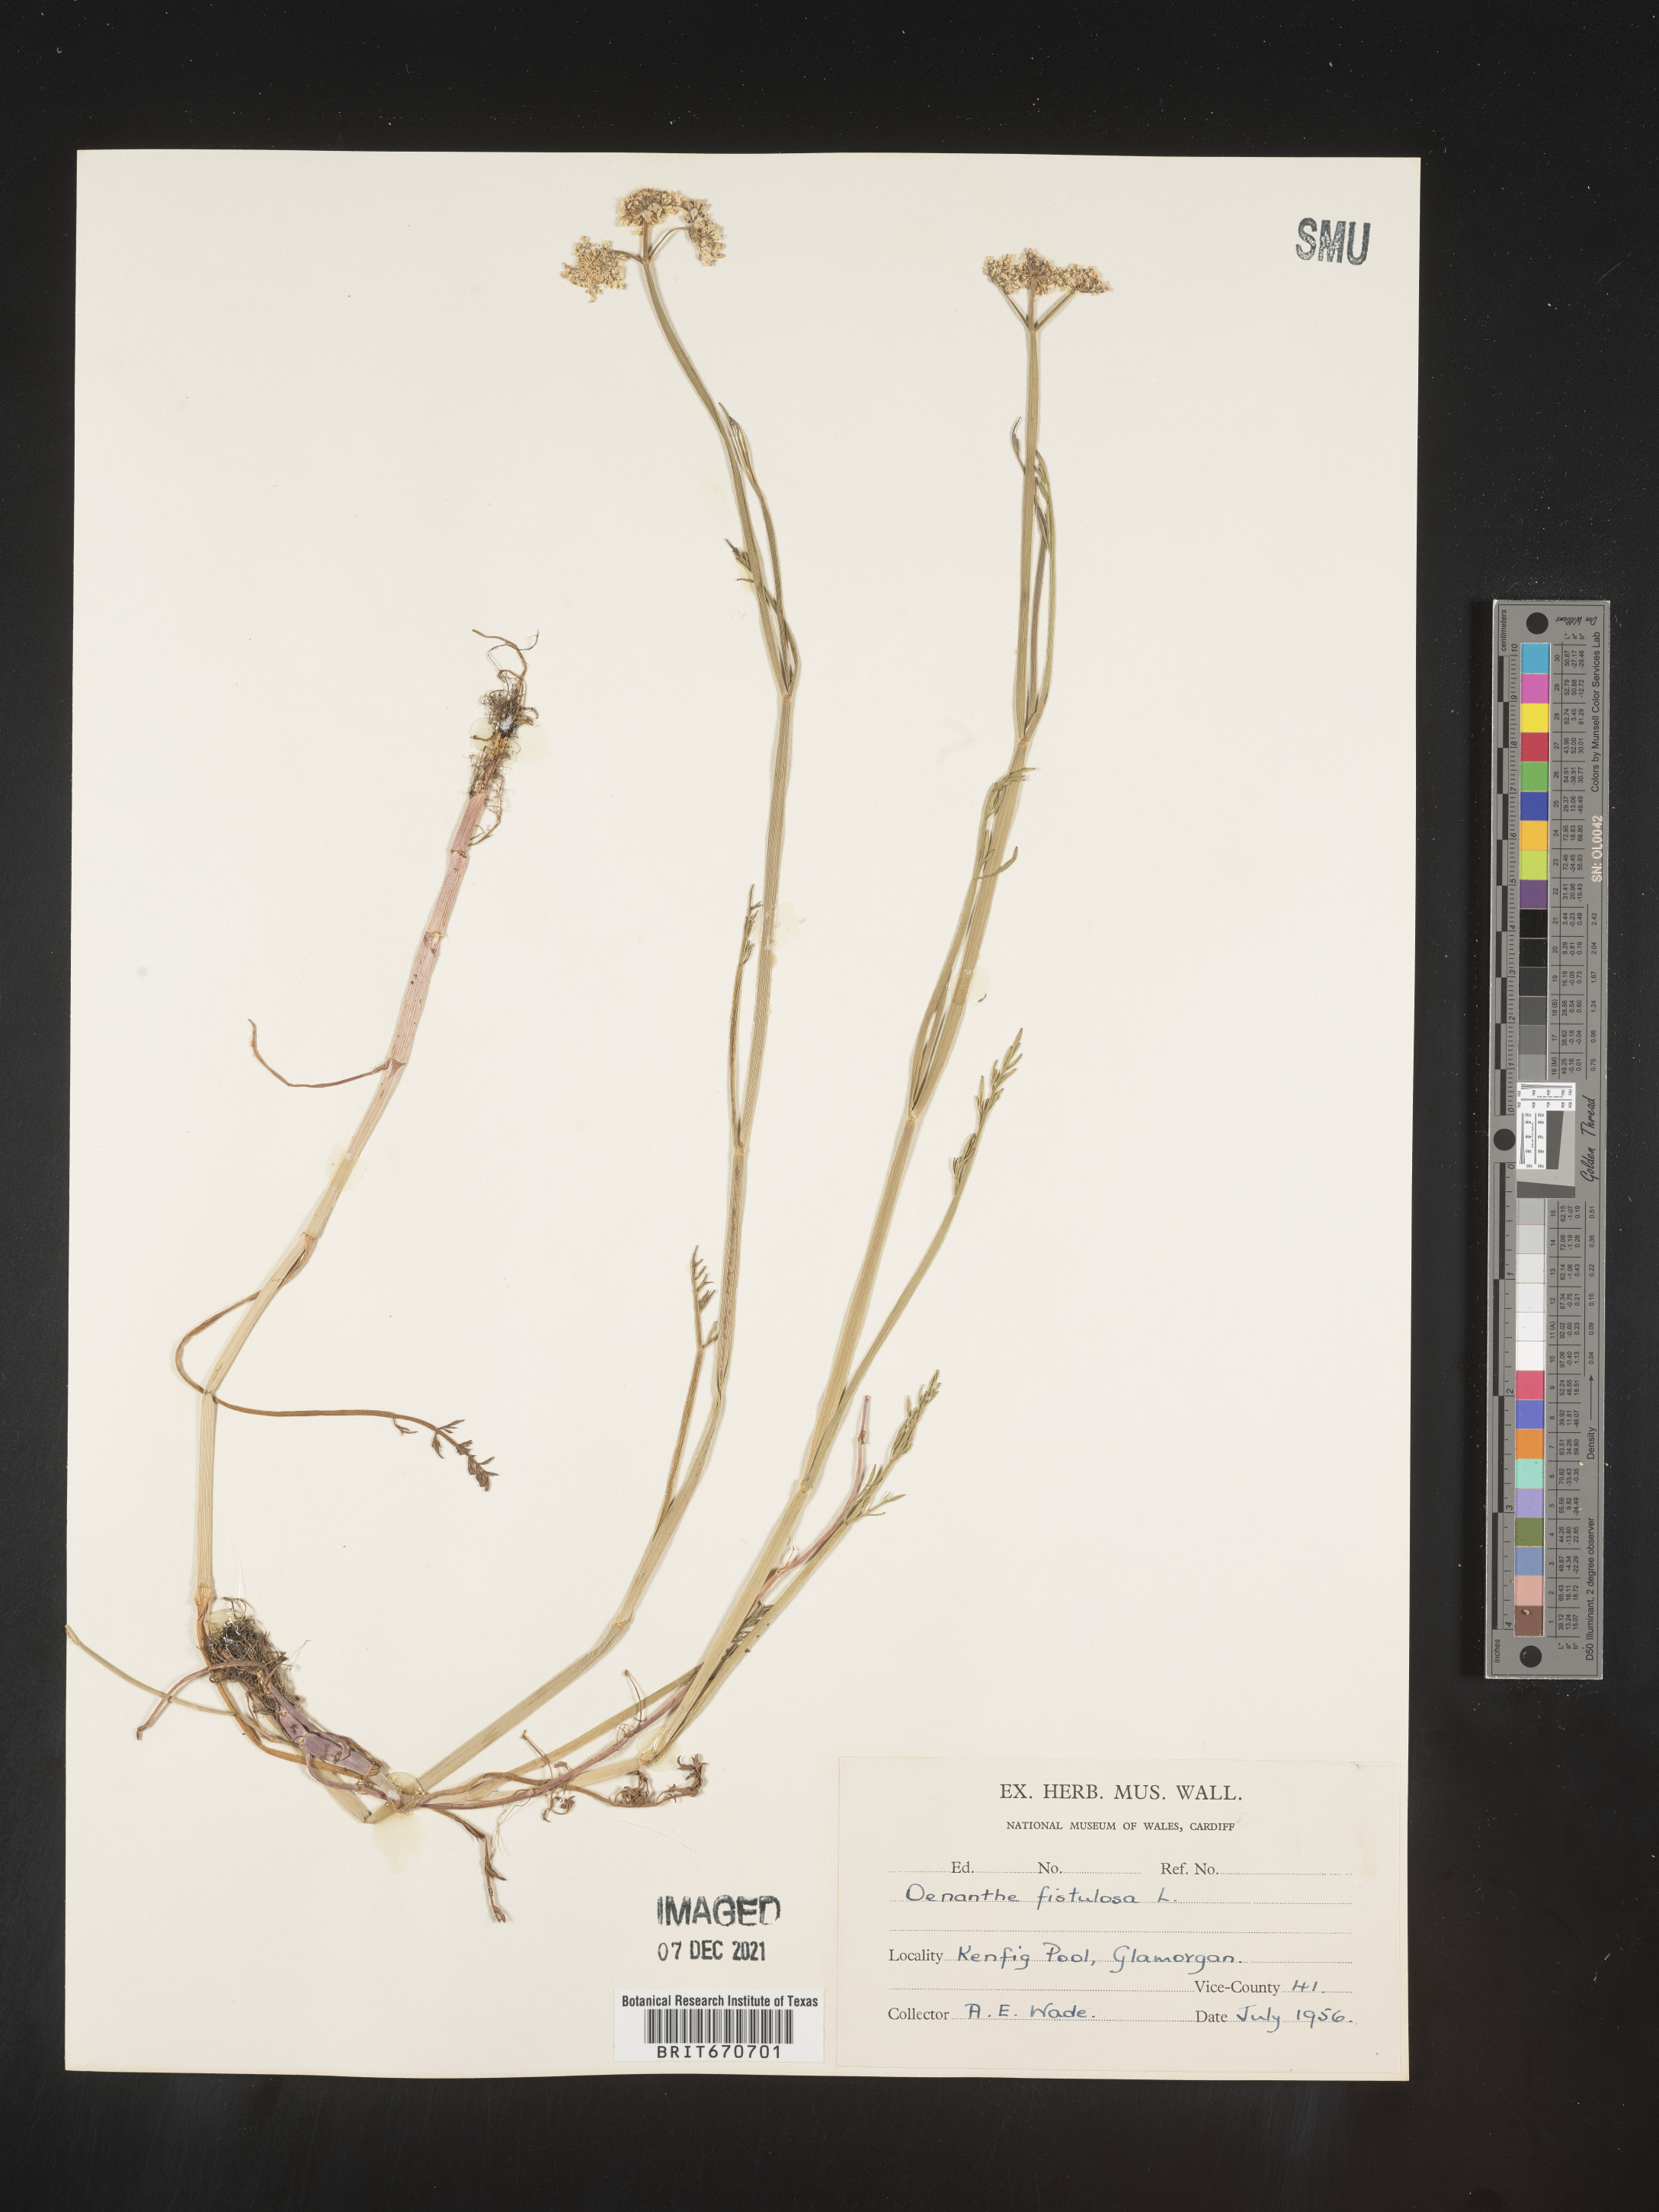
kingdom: Plantae
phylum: Tracheophyta
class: Magnoliopsida
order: Apiales
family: Apiaceae
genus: Oenanthe
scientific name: Oenanthe
